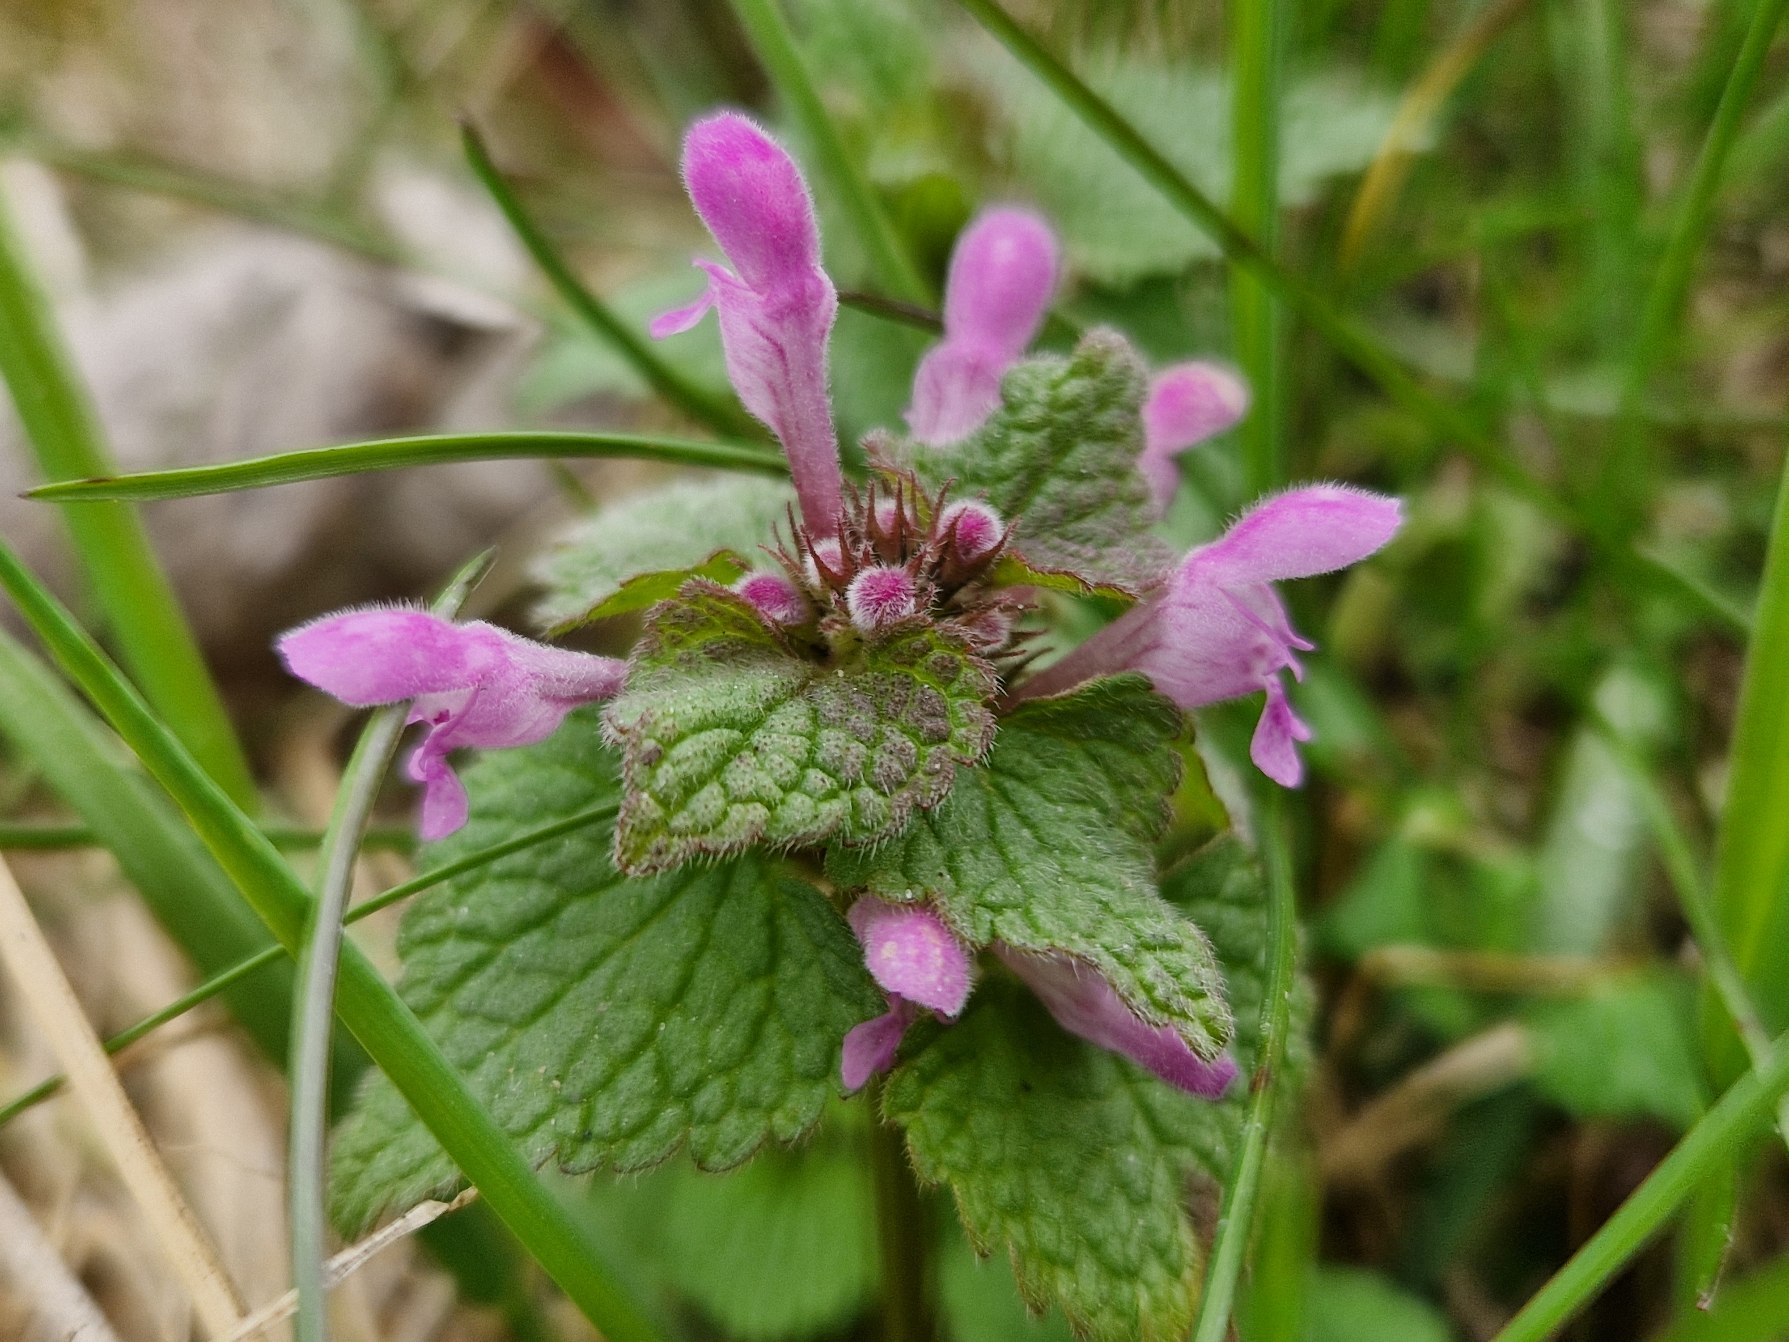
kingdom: Plantae
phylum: Tracheophyta
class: Magnoliopsida
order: Lamiales
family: Lamiaceae
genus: Lamium
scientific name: Lamium purpureum
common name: Rød tvetand
